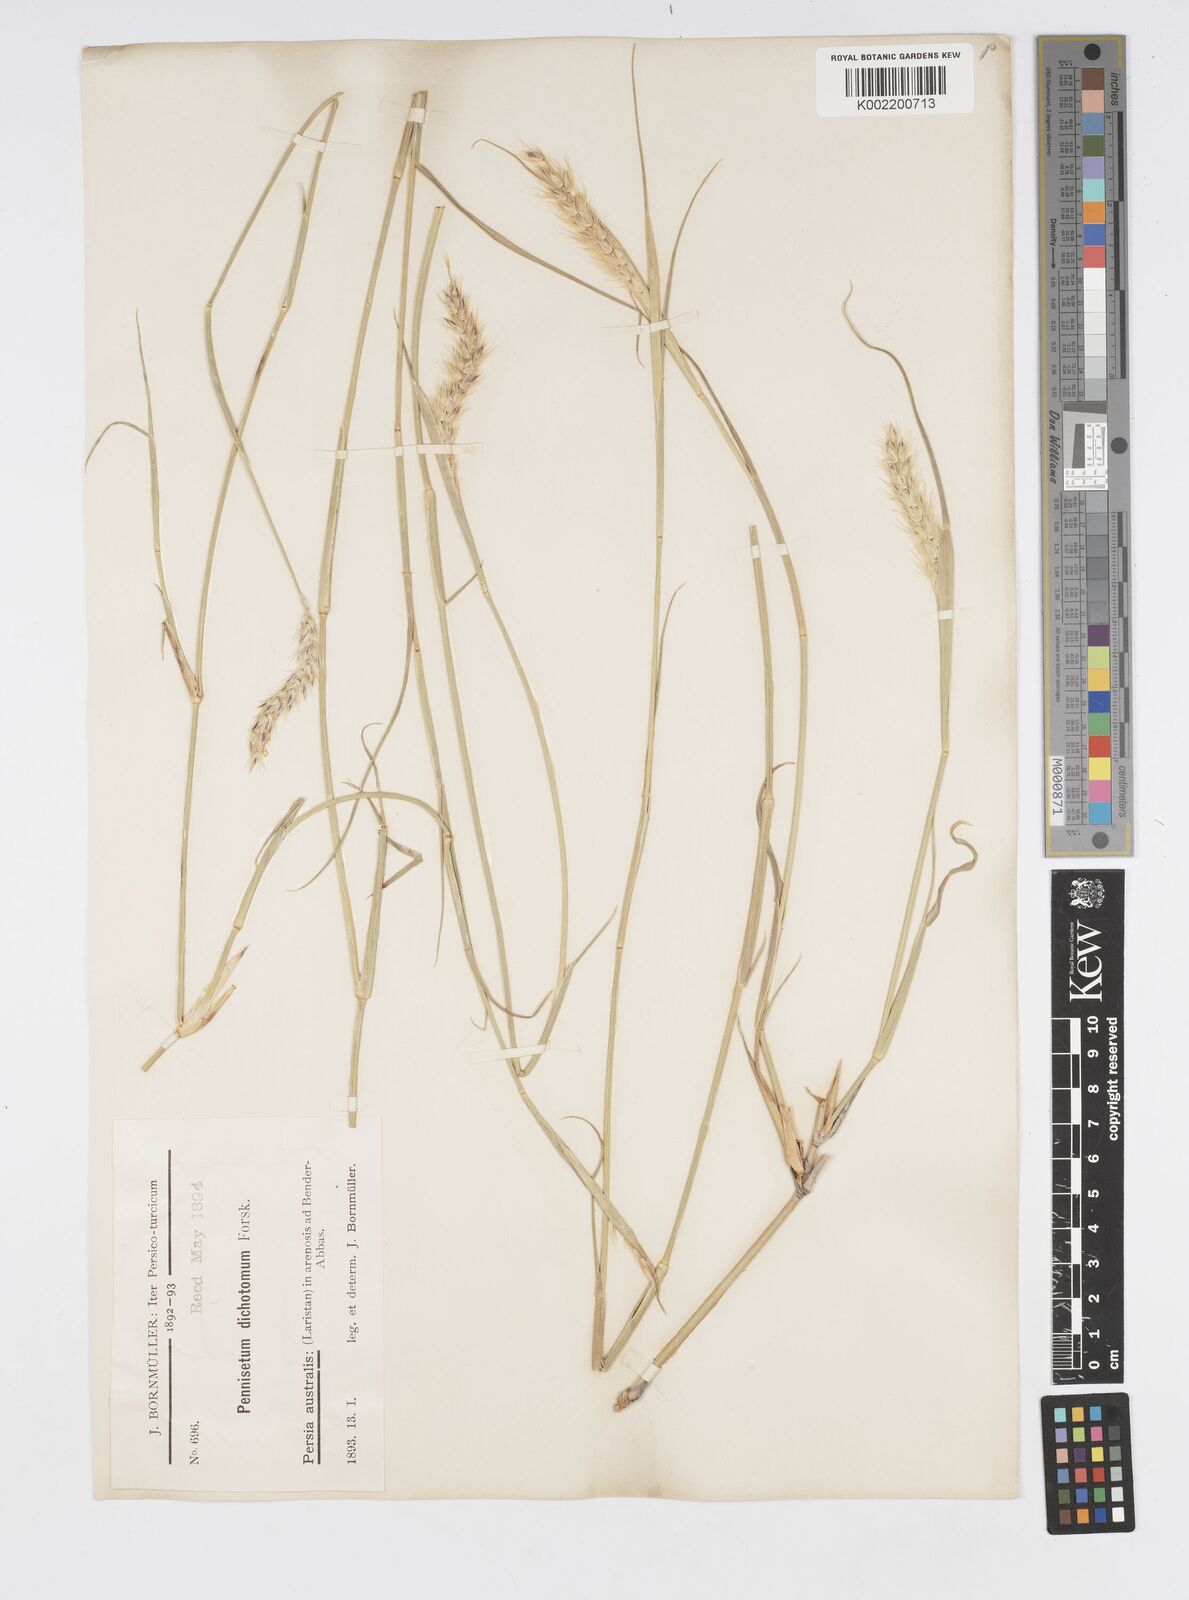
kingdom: Plantae
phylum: Tracheophyta
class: Liliopsida
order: Poales
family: Poaceae
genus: Cenchrus
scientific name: Cenchrus divisus
